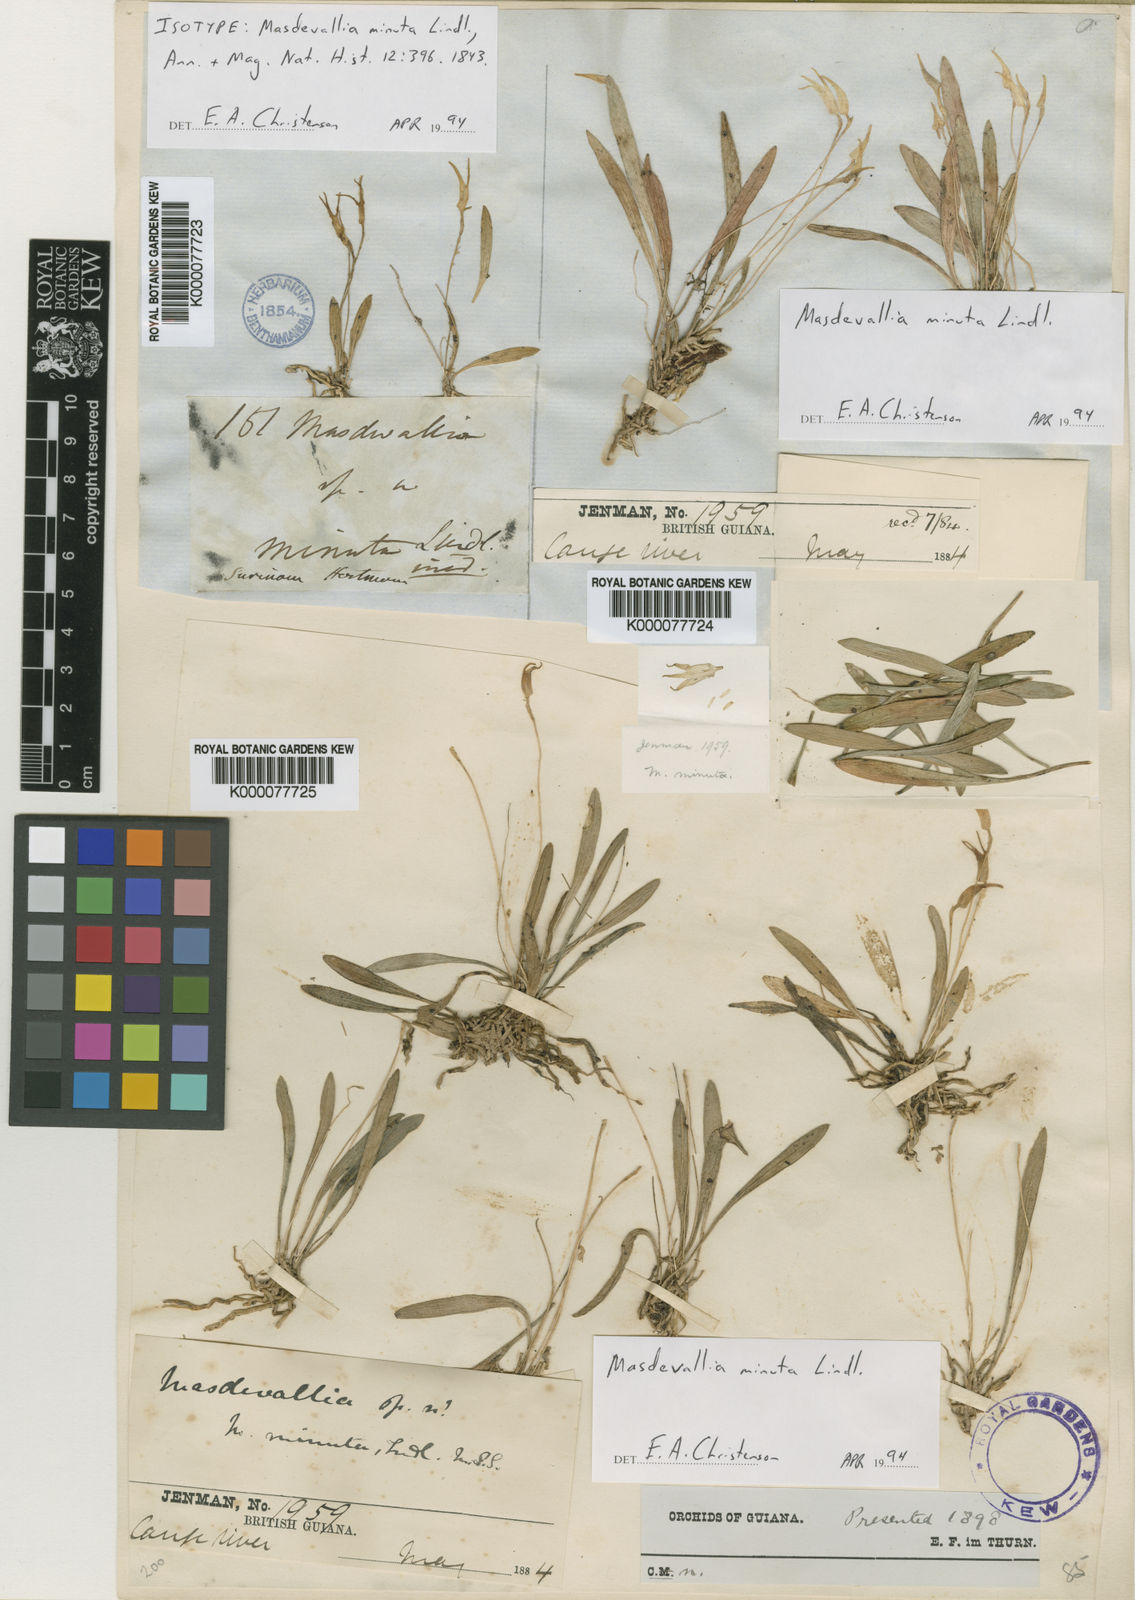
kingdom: Plantae
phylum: Tracheophyta
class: Liliopsida
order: Asparagales
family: Orchidaceae
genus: Masdevallia
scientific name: Masdevallia minuta
